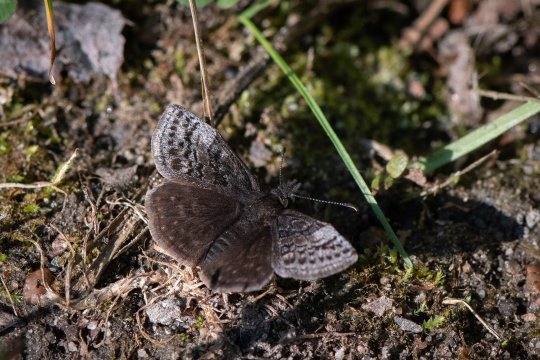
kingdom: Animalia
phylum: Arthropoda
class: Insecta
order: Lepidoptera
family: Hesperiidae
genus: Erynnis
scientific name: Erynnis icelus
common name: Dreamy Duskywing
